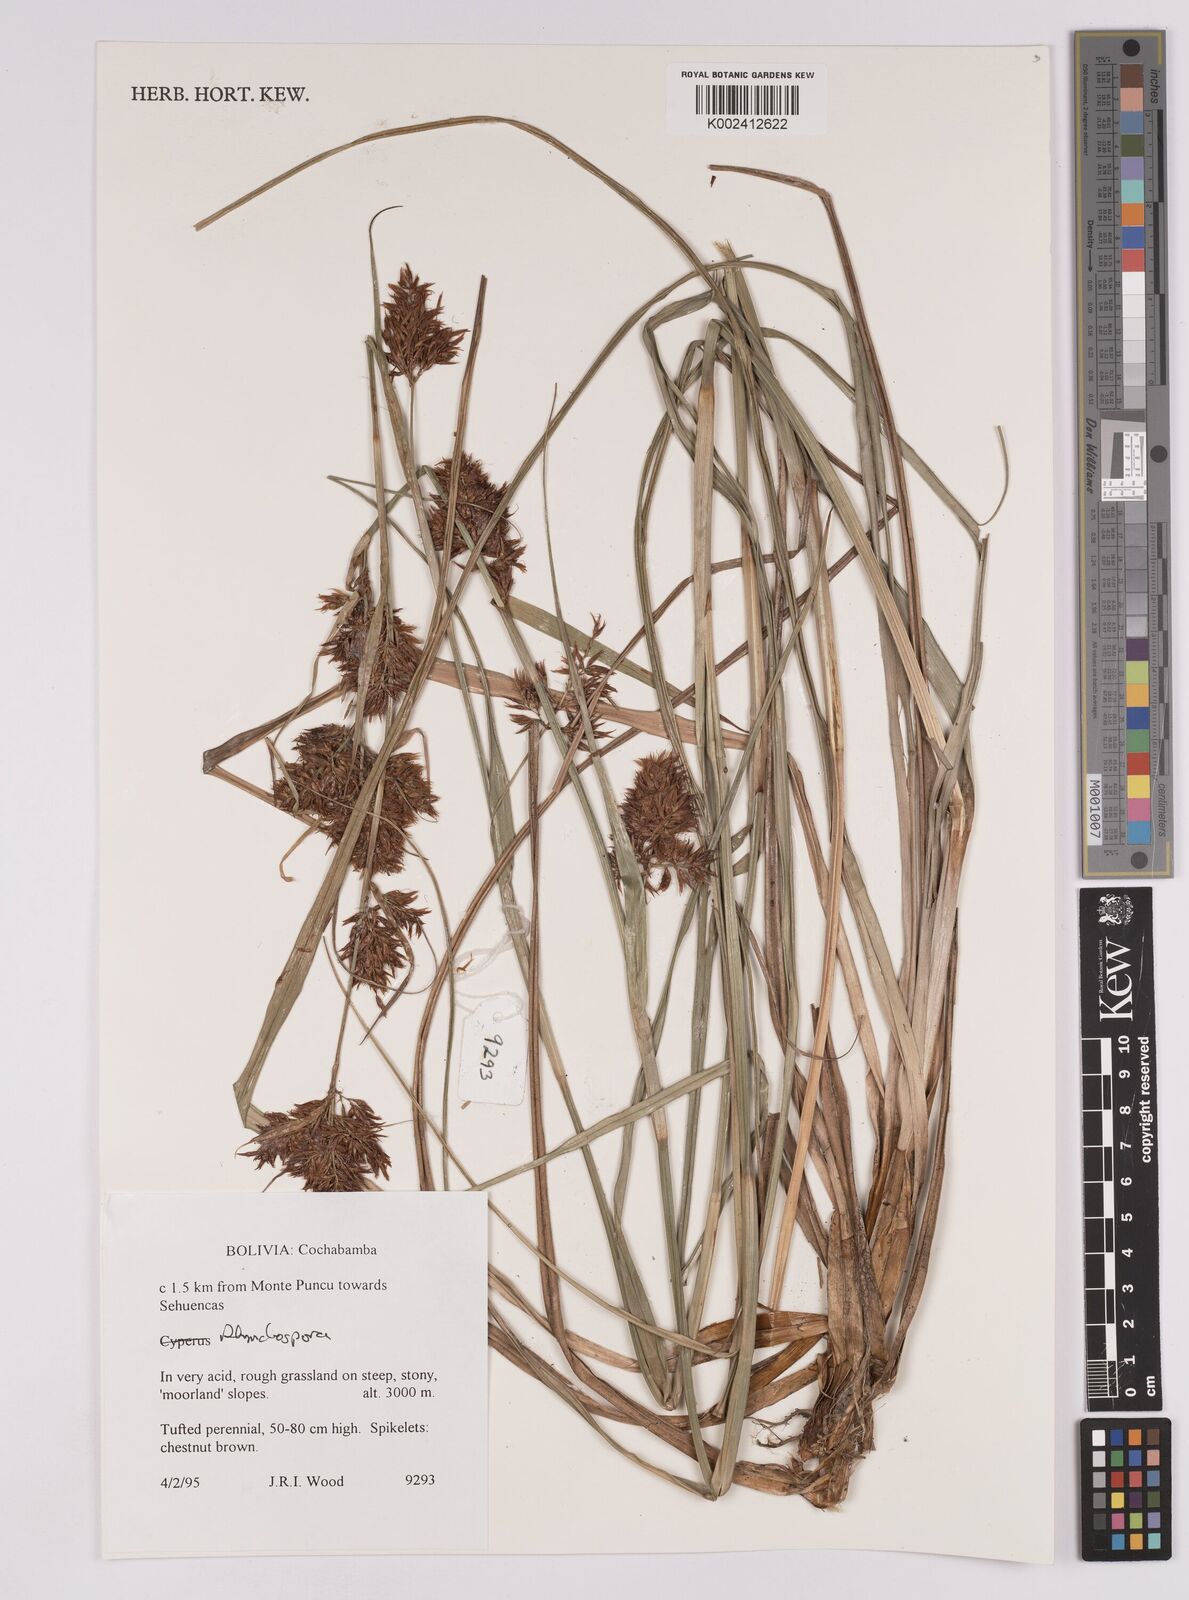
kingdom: Plantae
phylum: Tracheophyta
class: Liliopsida
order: Poales
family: Cyperaceae
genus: Rhynchospora
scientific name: Rhynchospora
